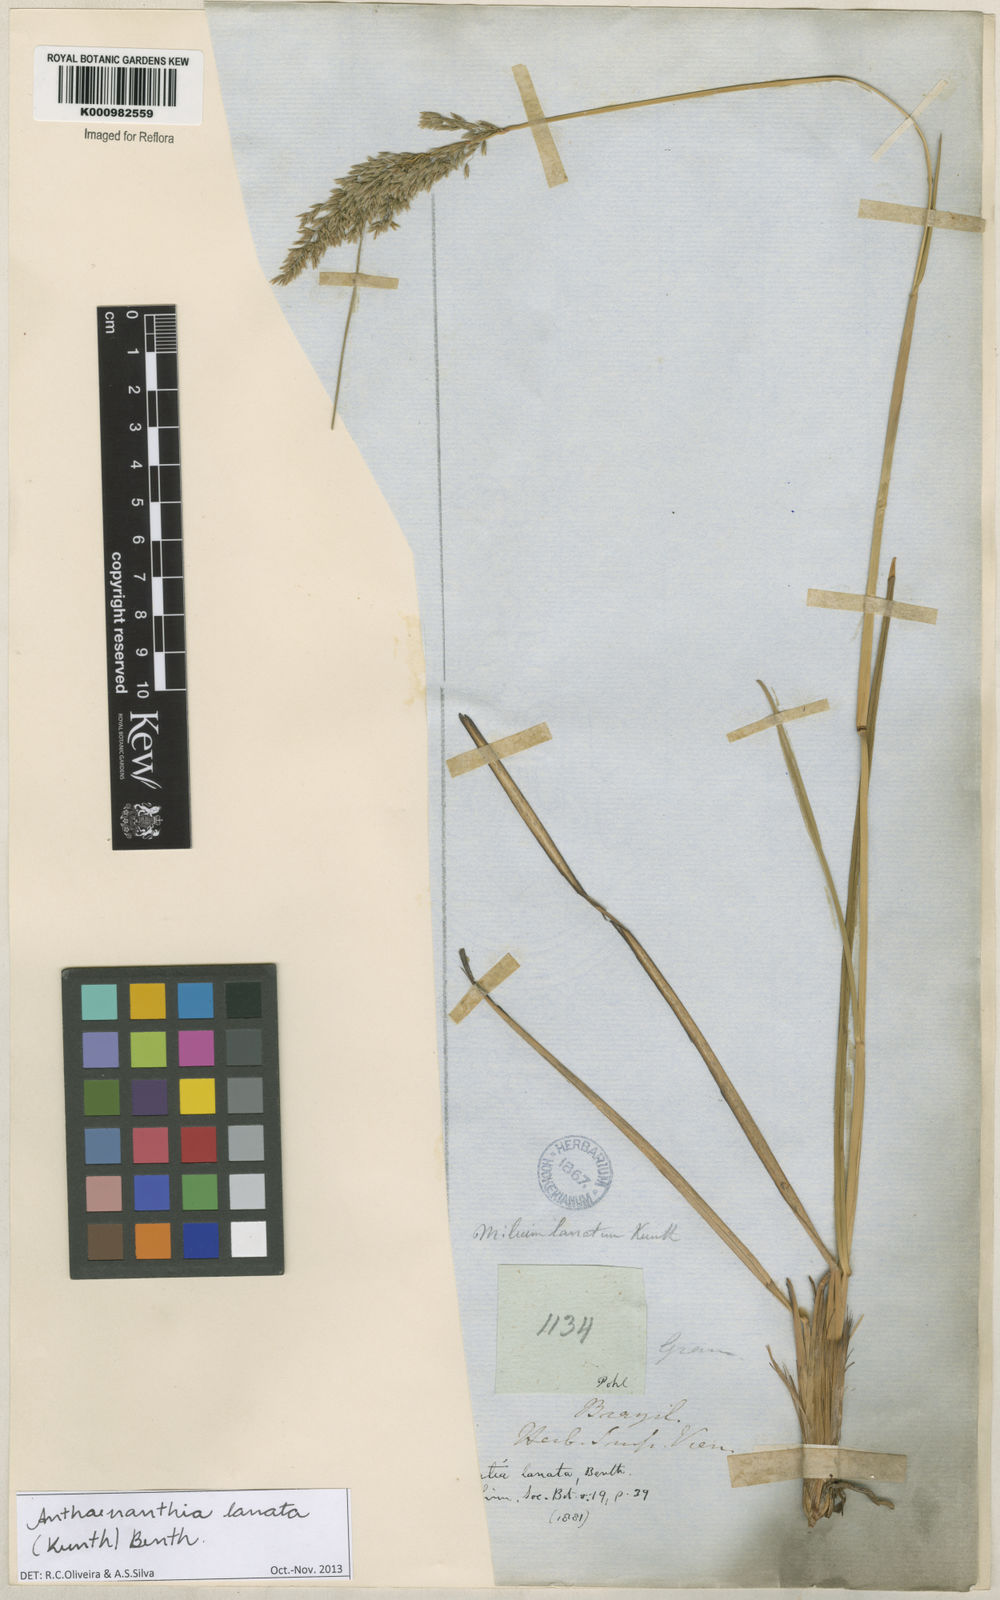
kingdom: Plantae
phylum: Tracheophyta
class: Liliopsida
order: Poales
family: Poaceae
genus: Anthenantia
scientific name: Anthenantia lanata
